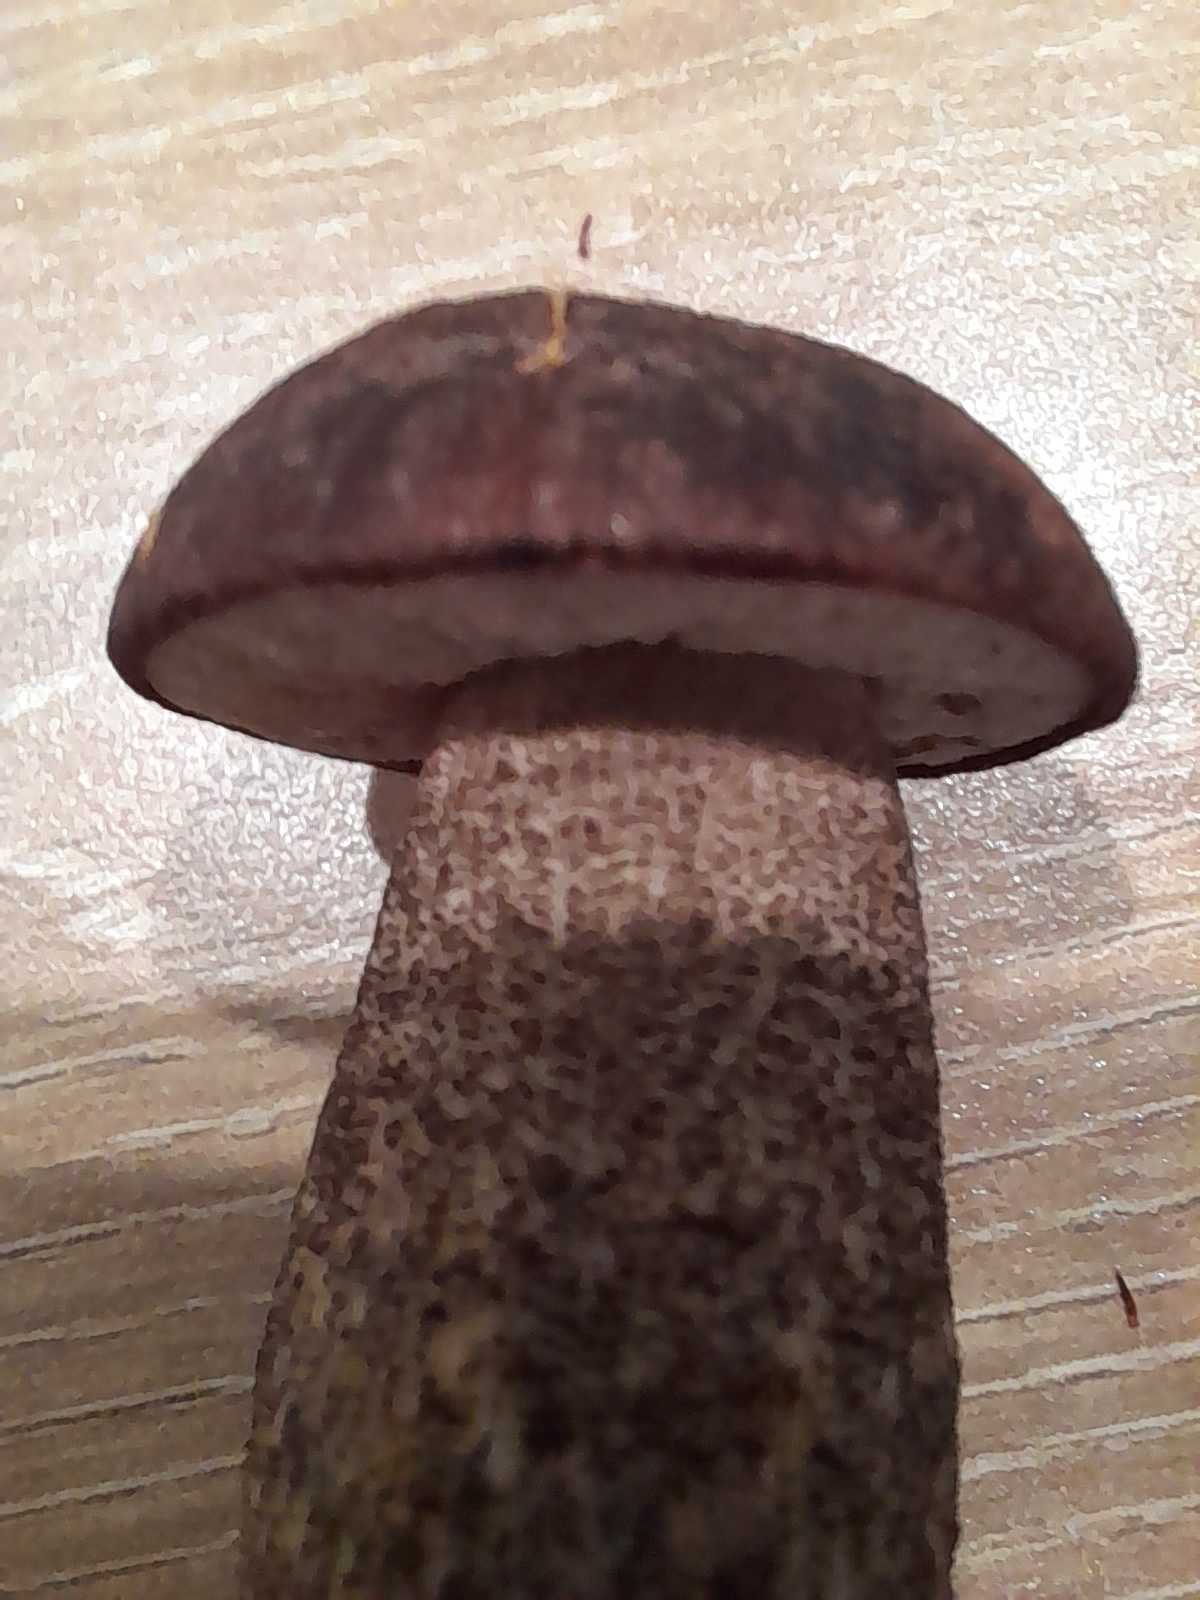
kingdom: Fungi
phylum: Basidiomycota
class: Agaricomycetes
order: Boletales
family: Boletaceae
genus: Leccinum
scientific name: Leccinum
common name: skælrørhat
